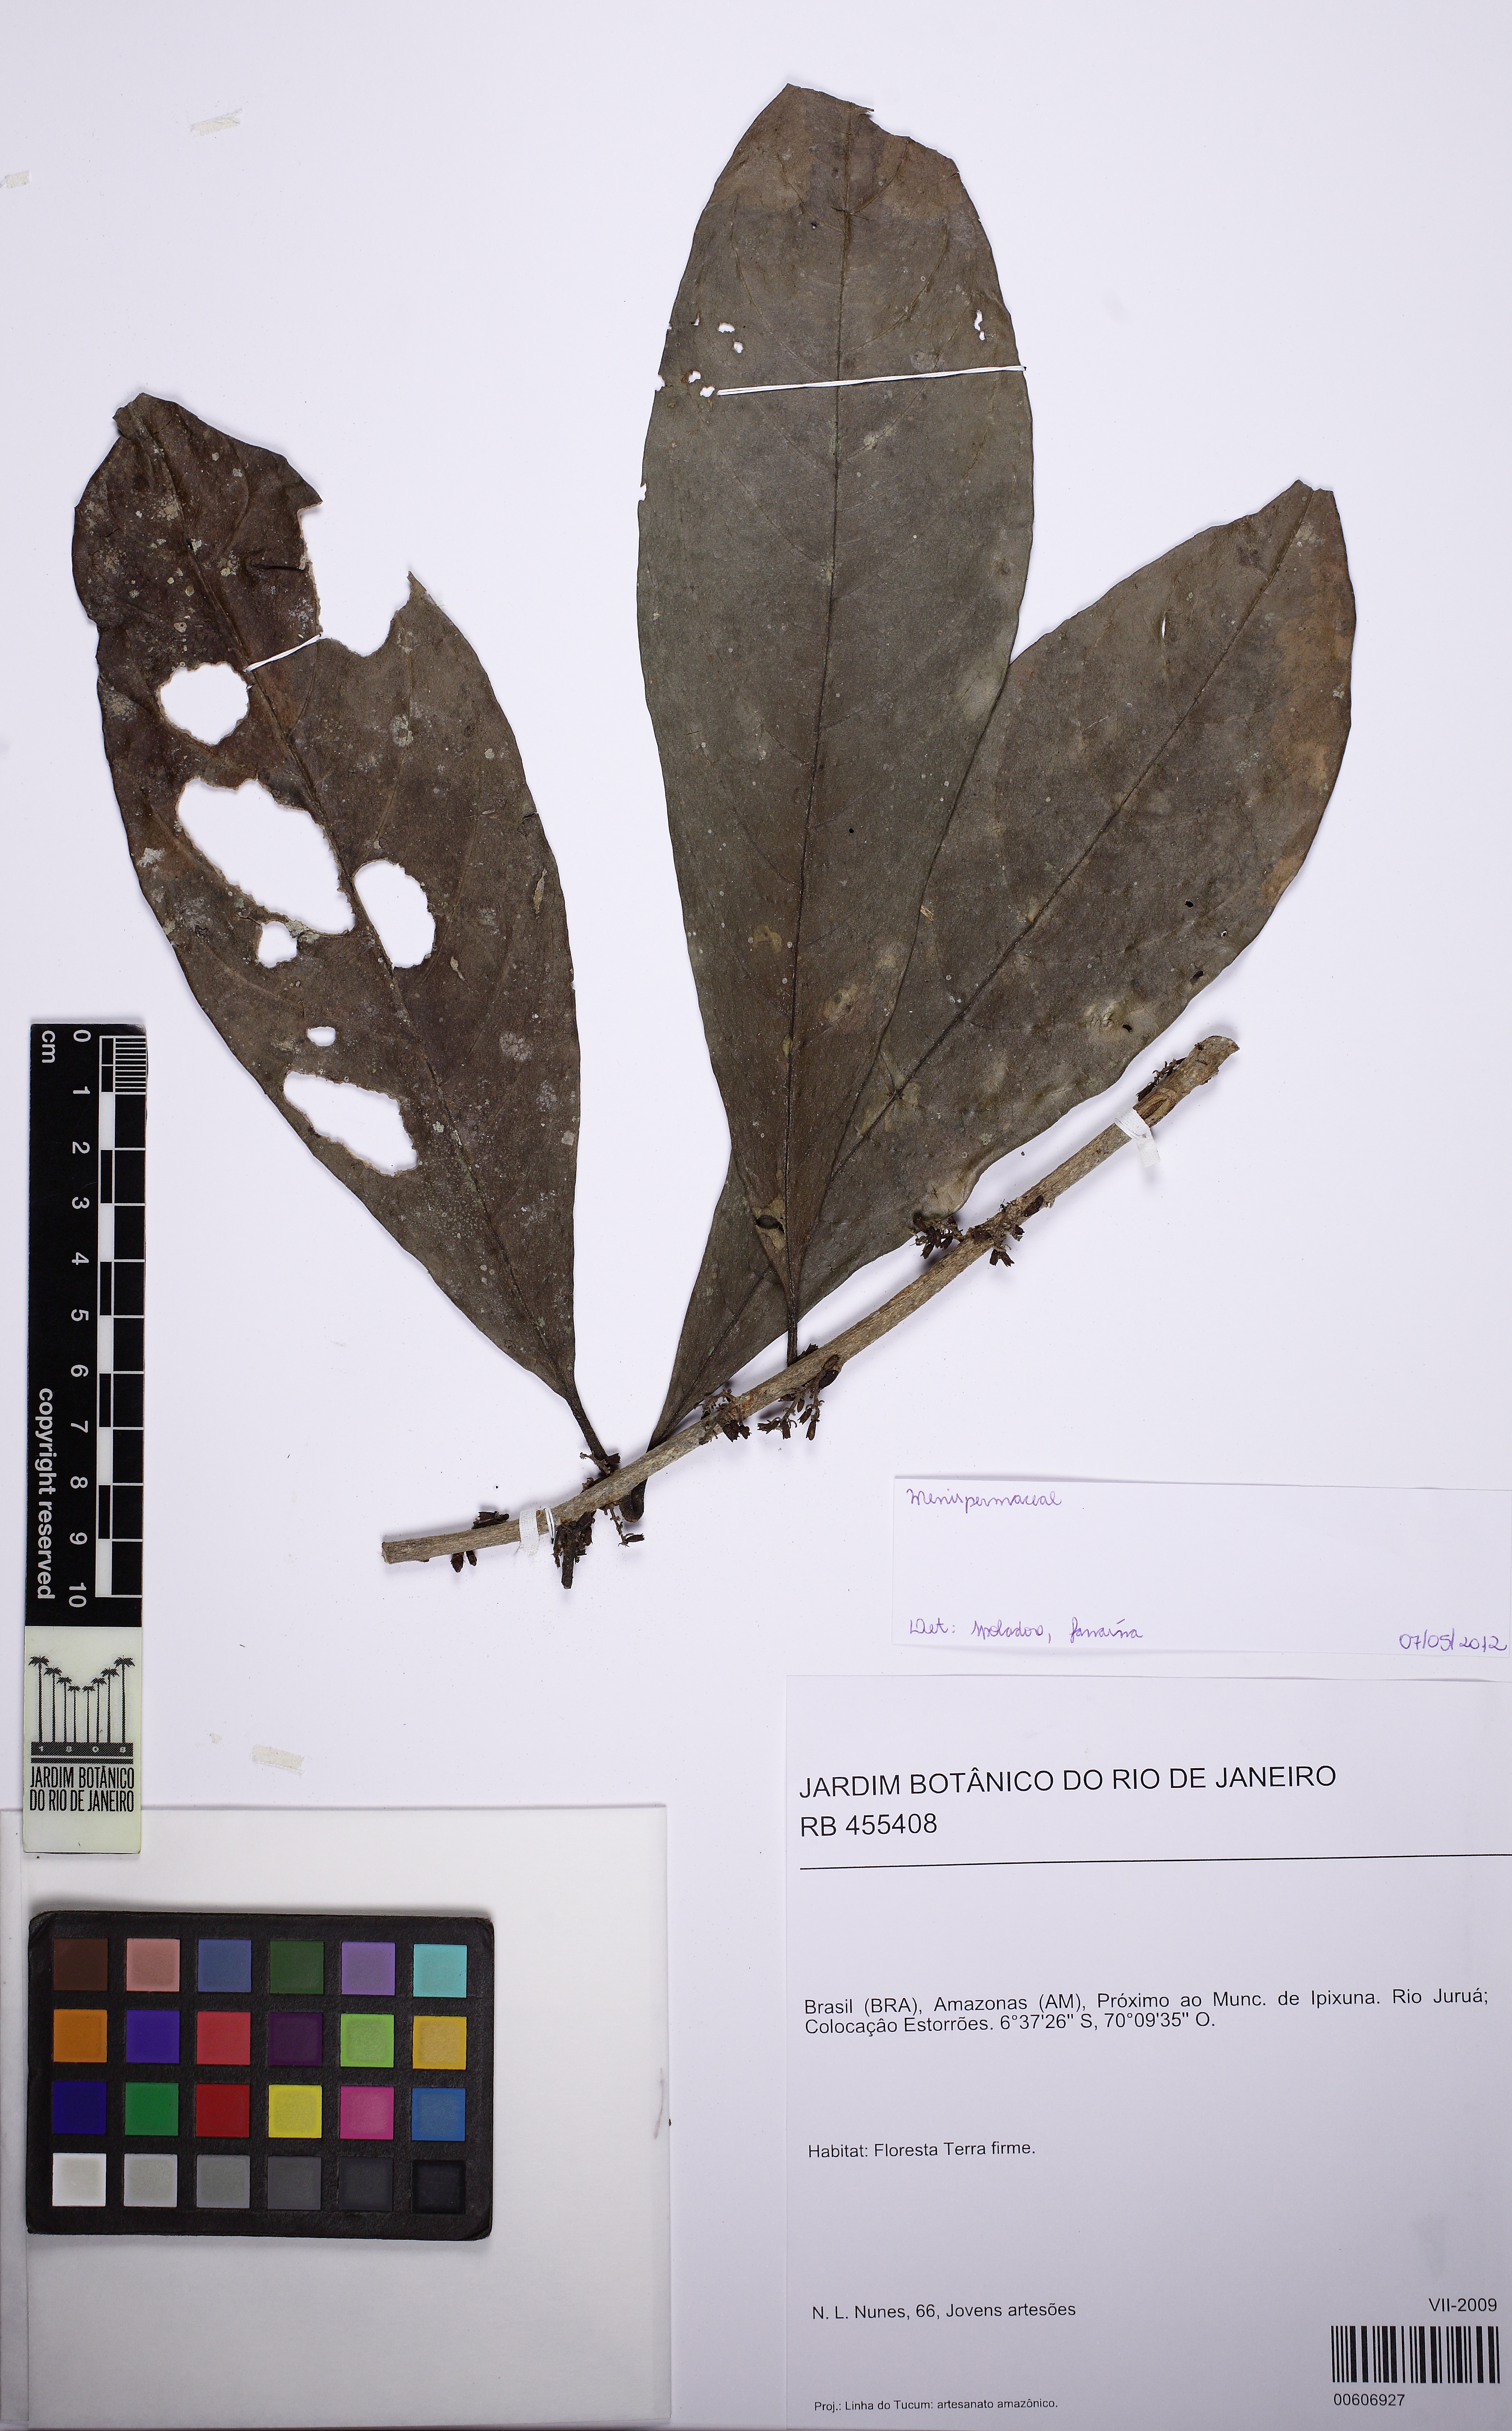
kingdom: Plantae
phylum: Tracheophyta
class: Magnoliopsida
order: Solanales
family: Solanaceae
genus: Cestrum
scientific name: Cestrum
